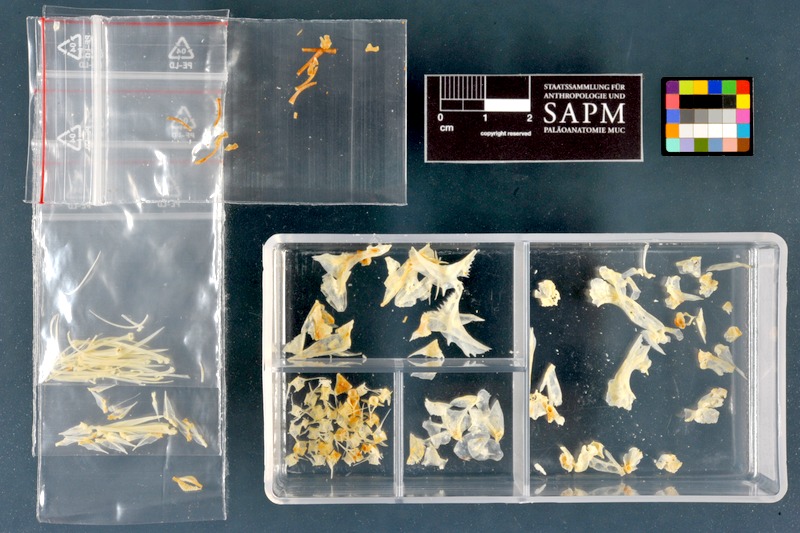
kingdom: Animalia
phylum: Chordata
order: Perciformes
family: Percidae
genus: Gymnocephalus
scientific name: Gymnocephalus schraetser
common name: Schraetzer
